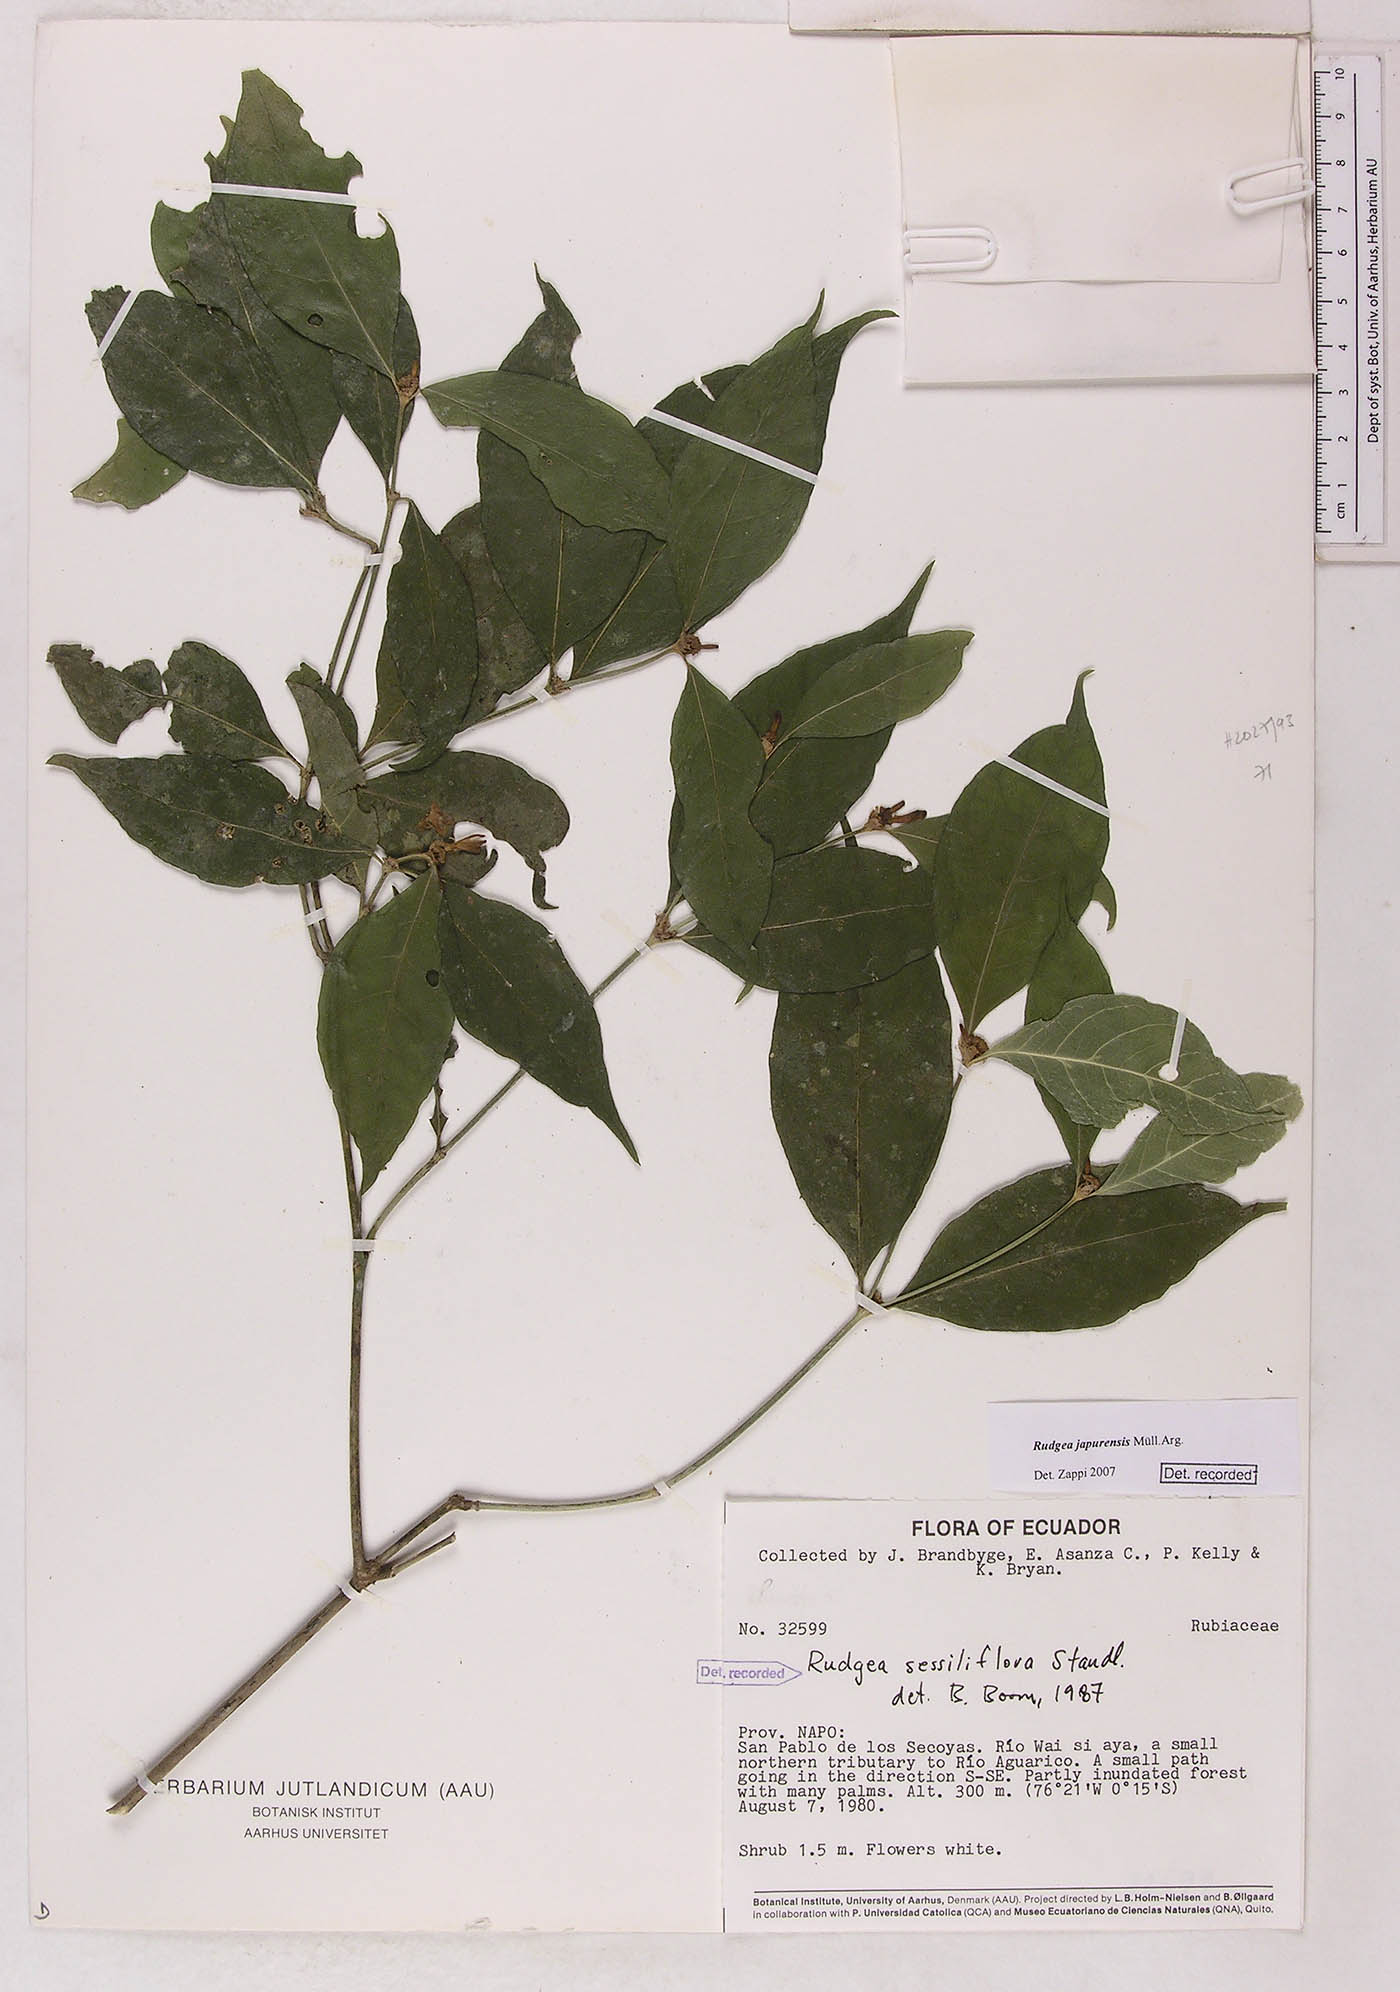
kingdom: Plantae
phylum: Tracheophyta
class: Magnoliopsida
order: Gentianales
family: Rubiaceae
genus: Rudgea
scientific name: Rudgea panurensis
